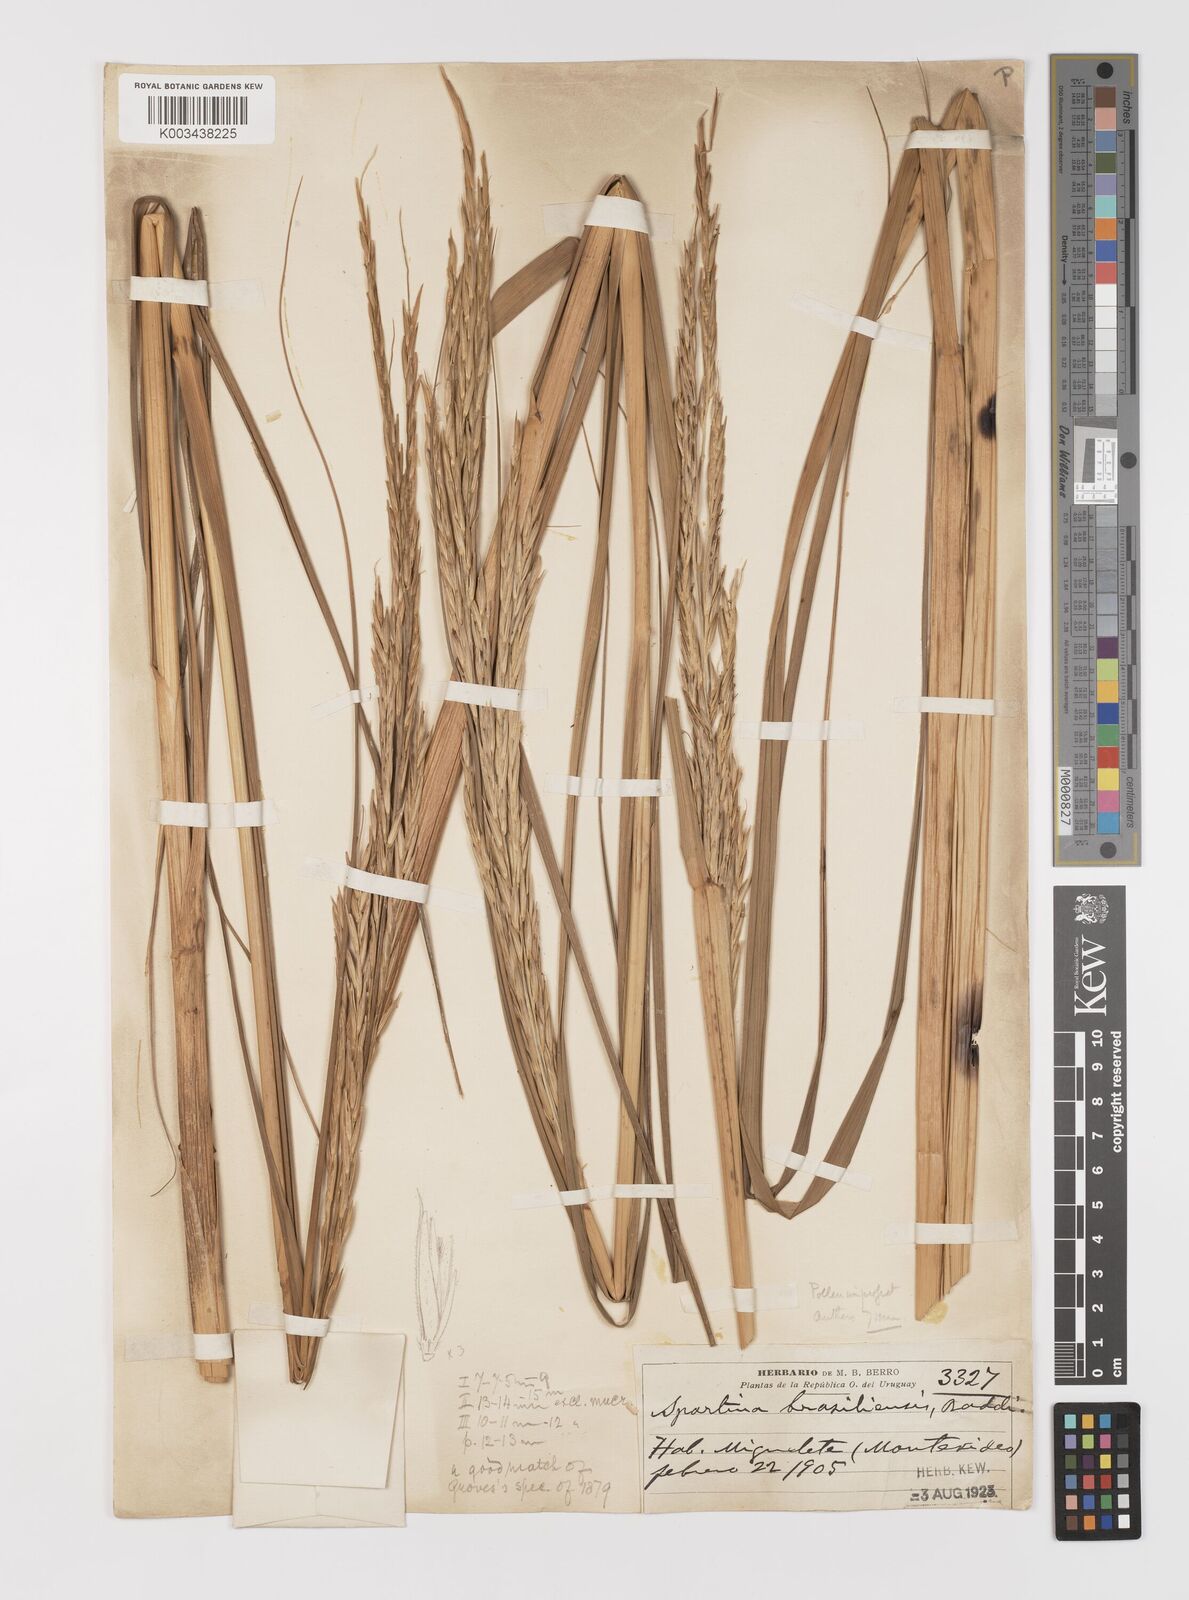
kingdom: Plantae
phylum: Tracheophyta
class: Liliopsida
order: Poales
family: Poaceae
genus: Sporobolus
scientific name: Sporobolus longispicus
